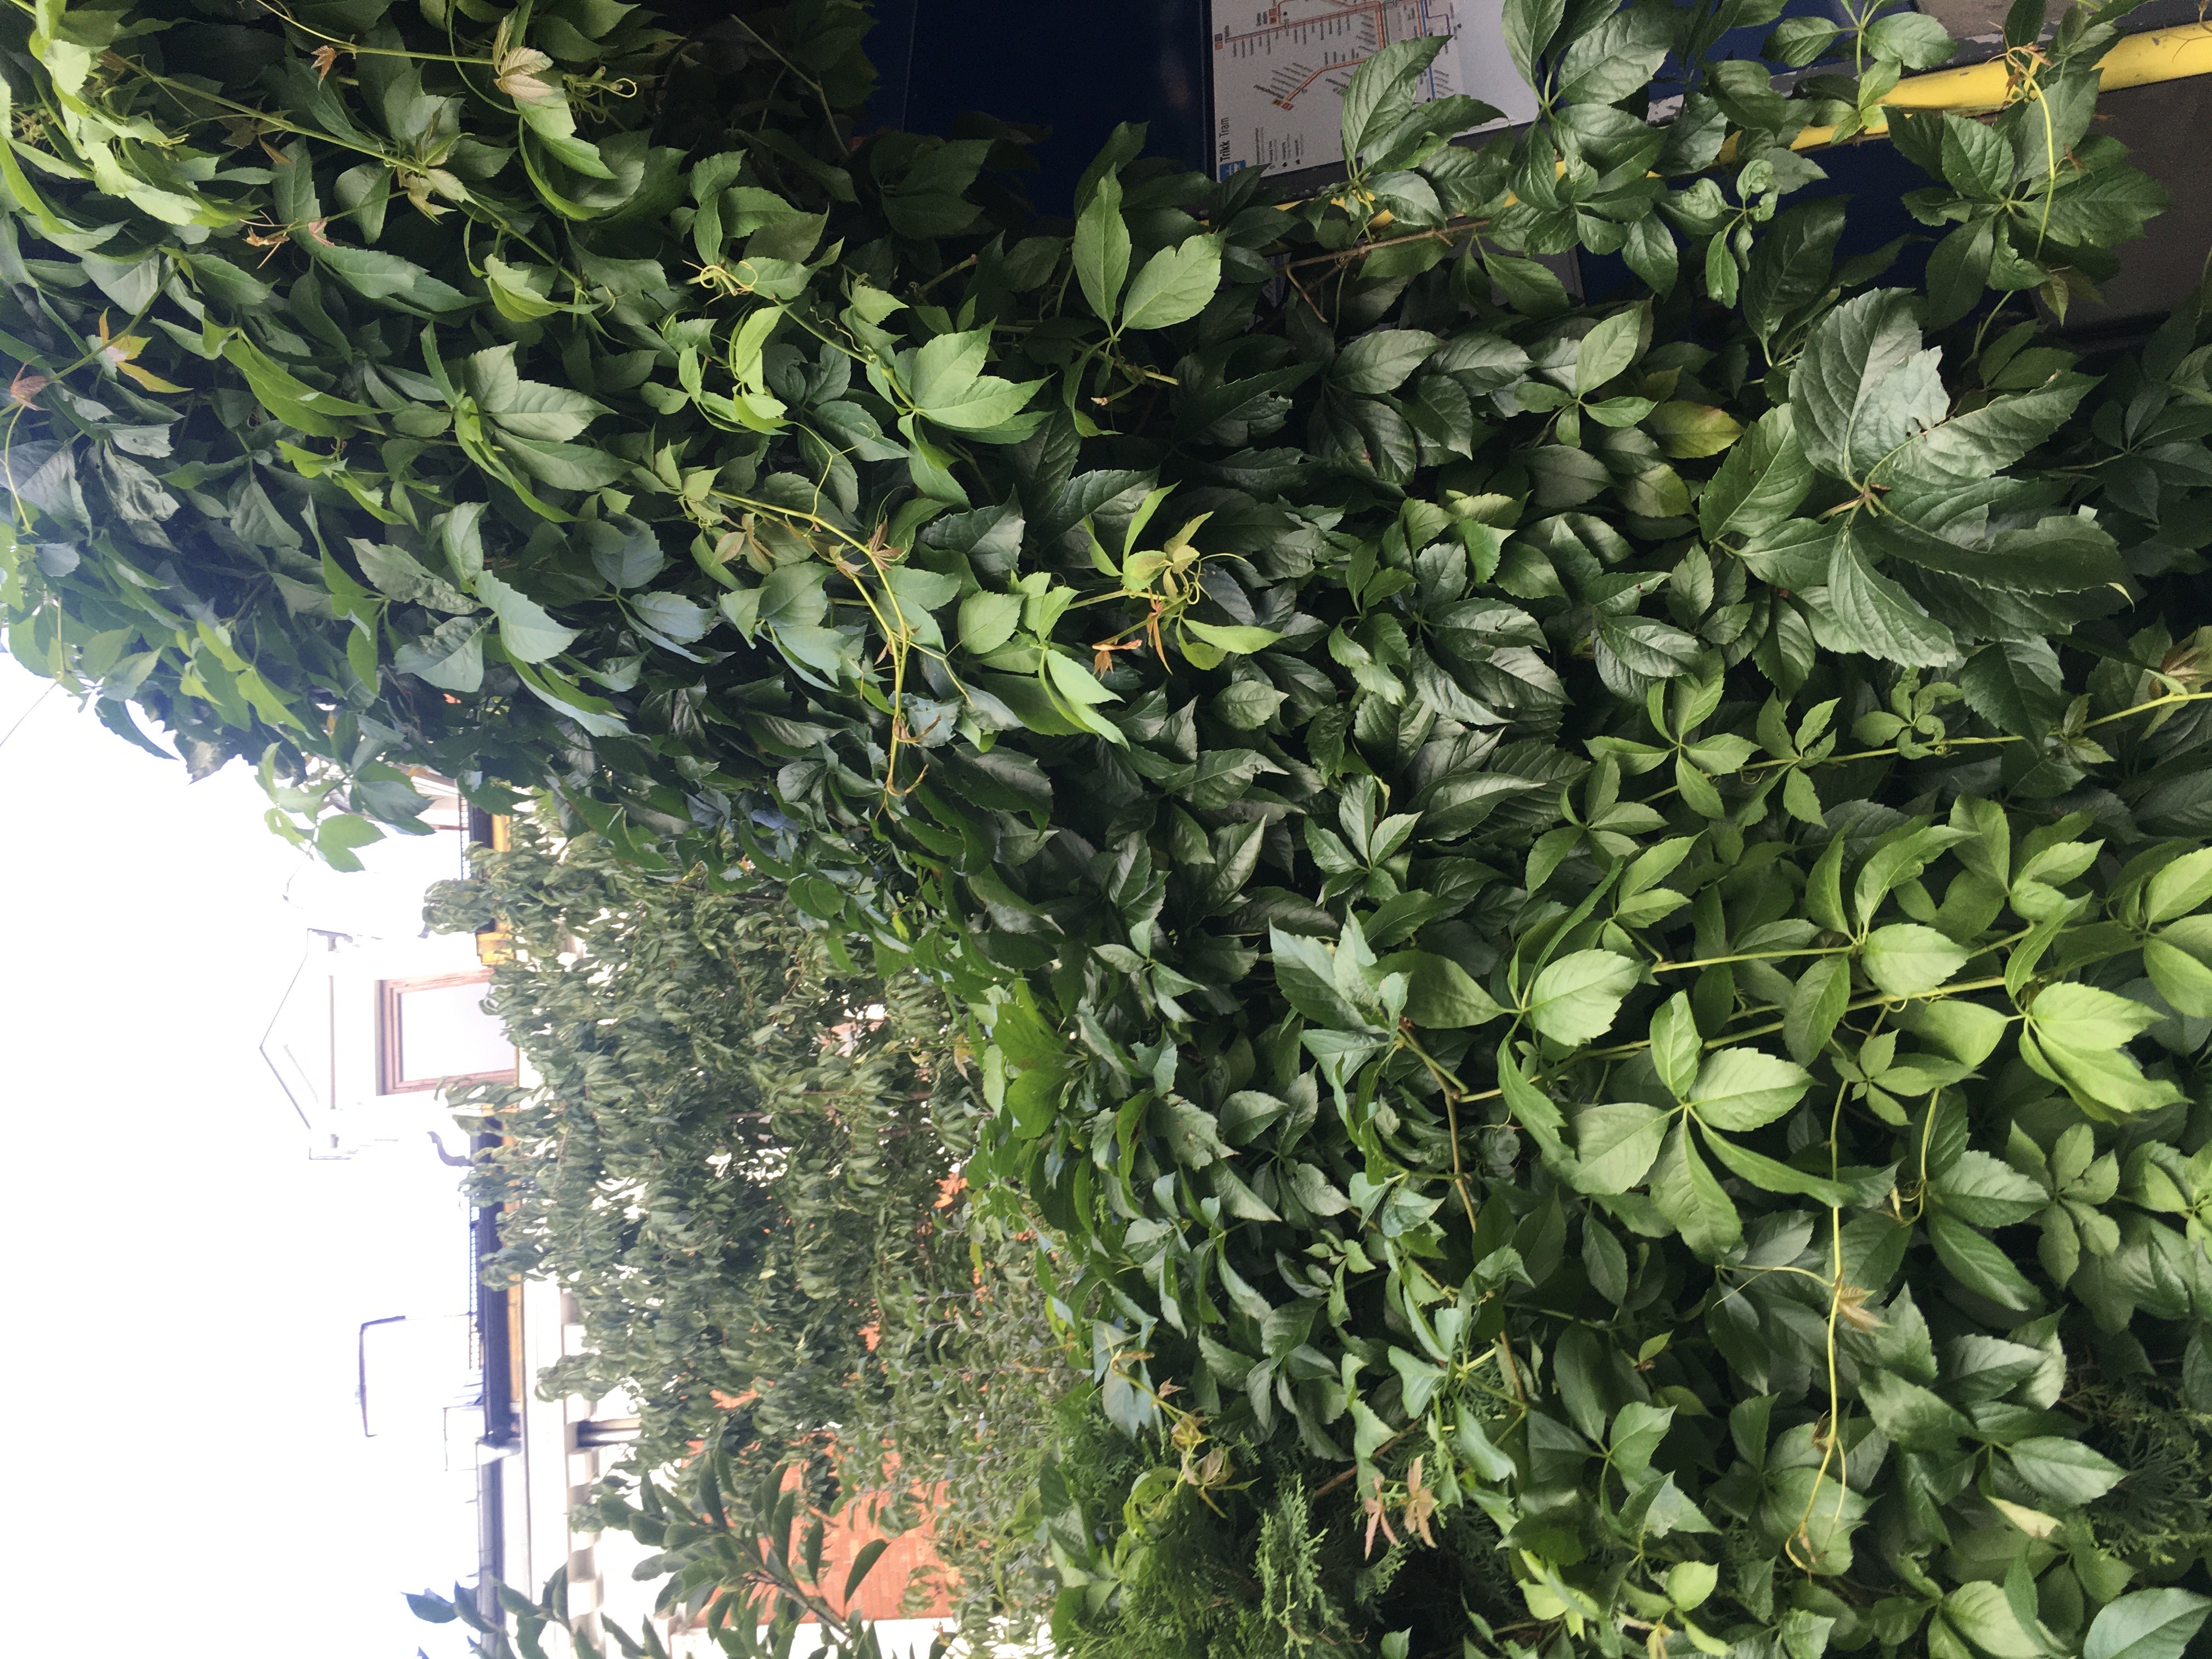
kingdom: Plantae
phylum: Tracheophyta
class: Magnoliopsida
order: Vitales
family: Vitaceae
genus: Parthenocissus
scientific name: Parthenocissus quinquefolia
